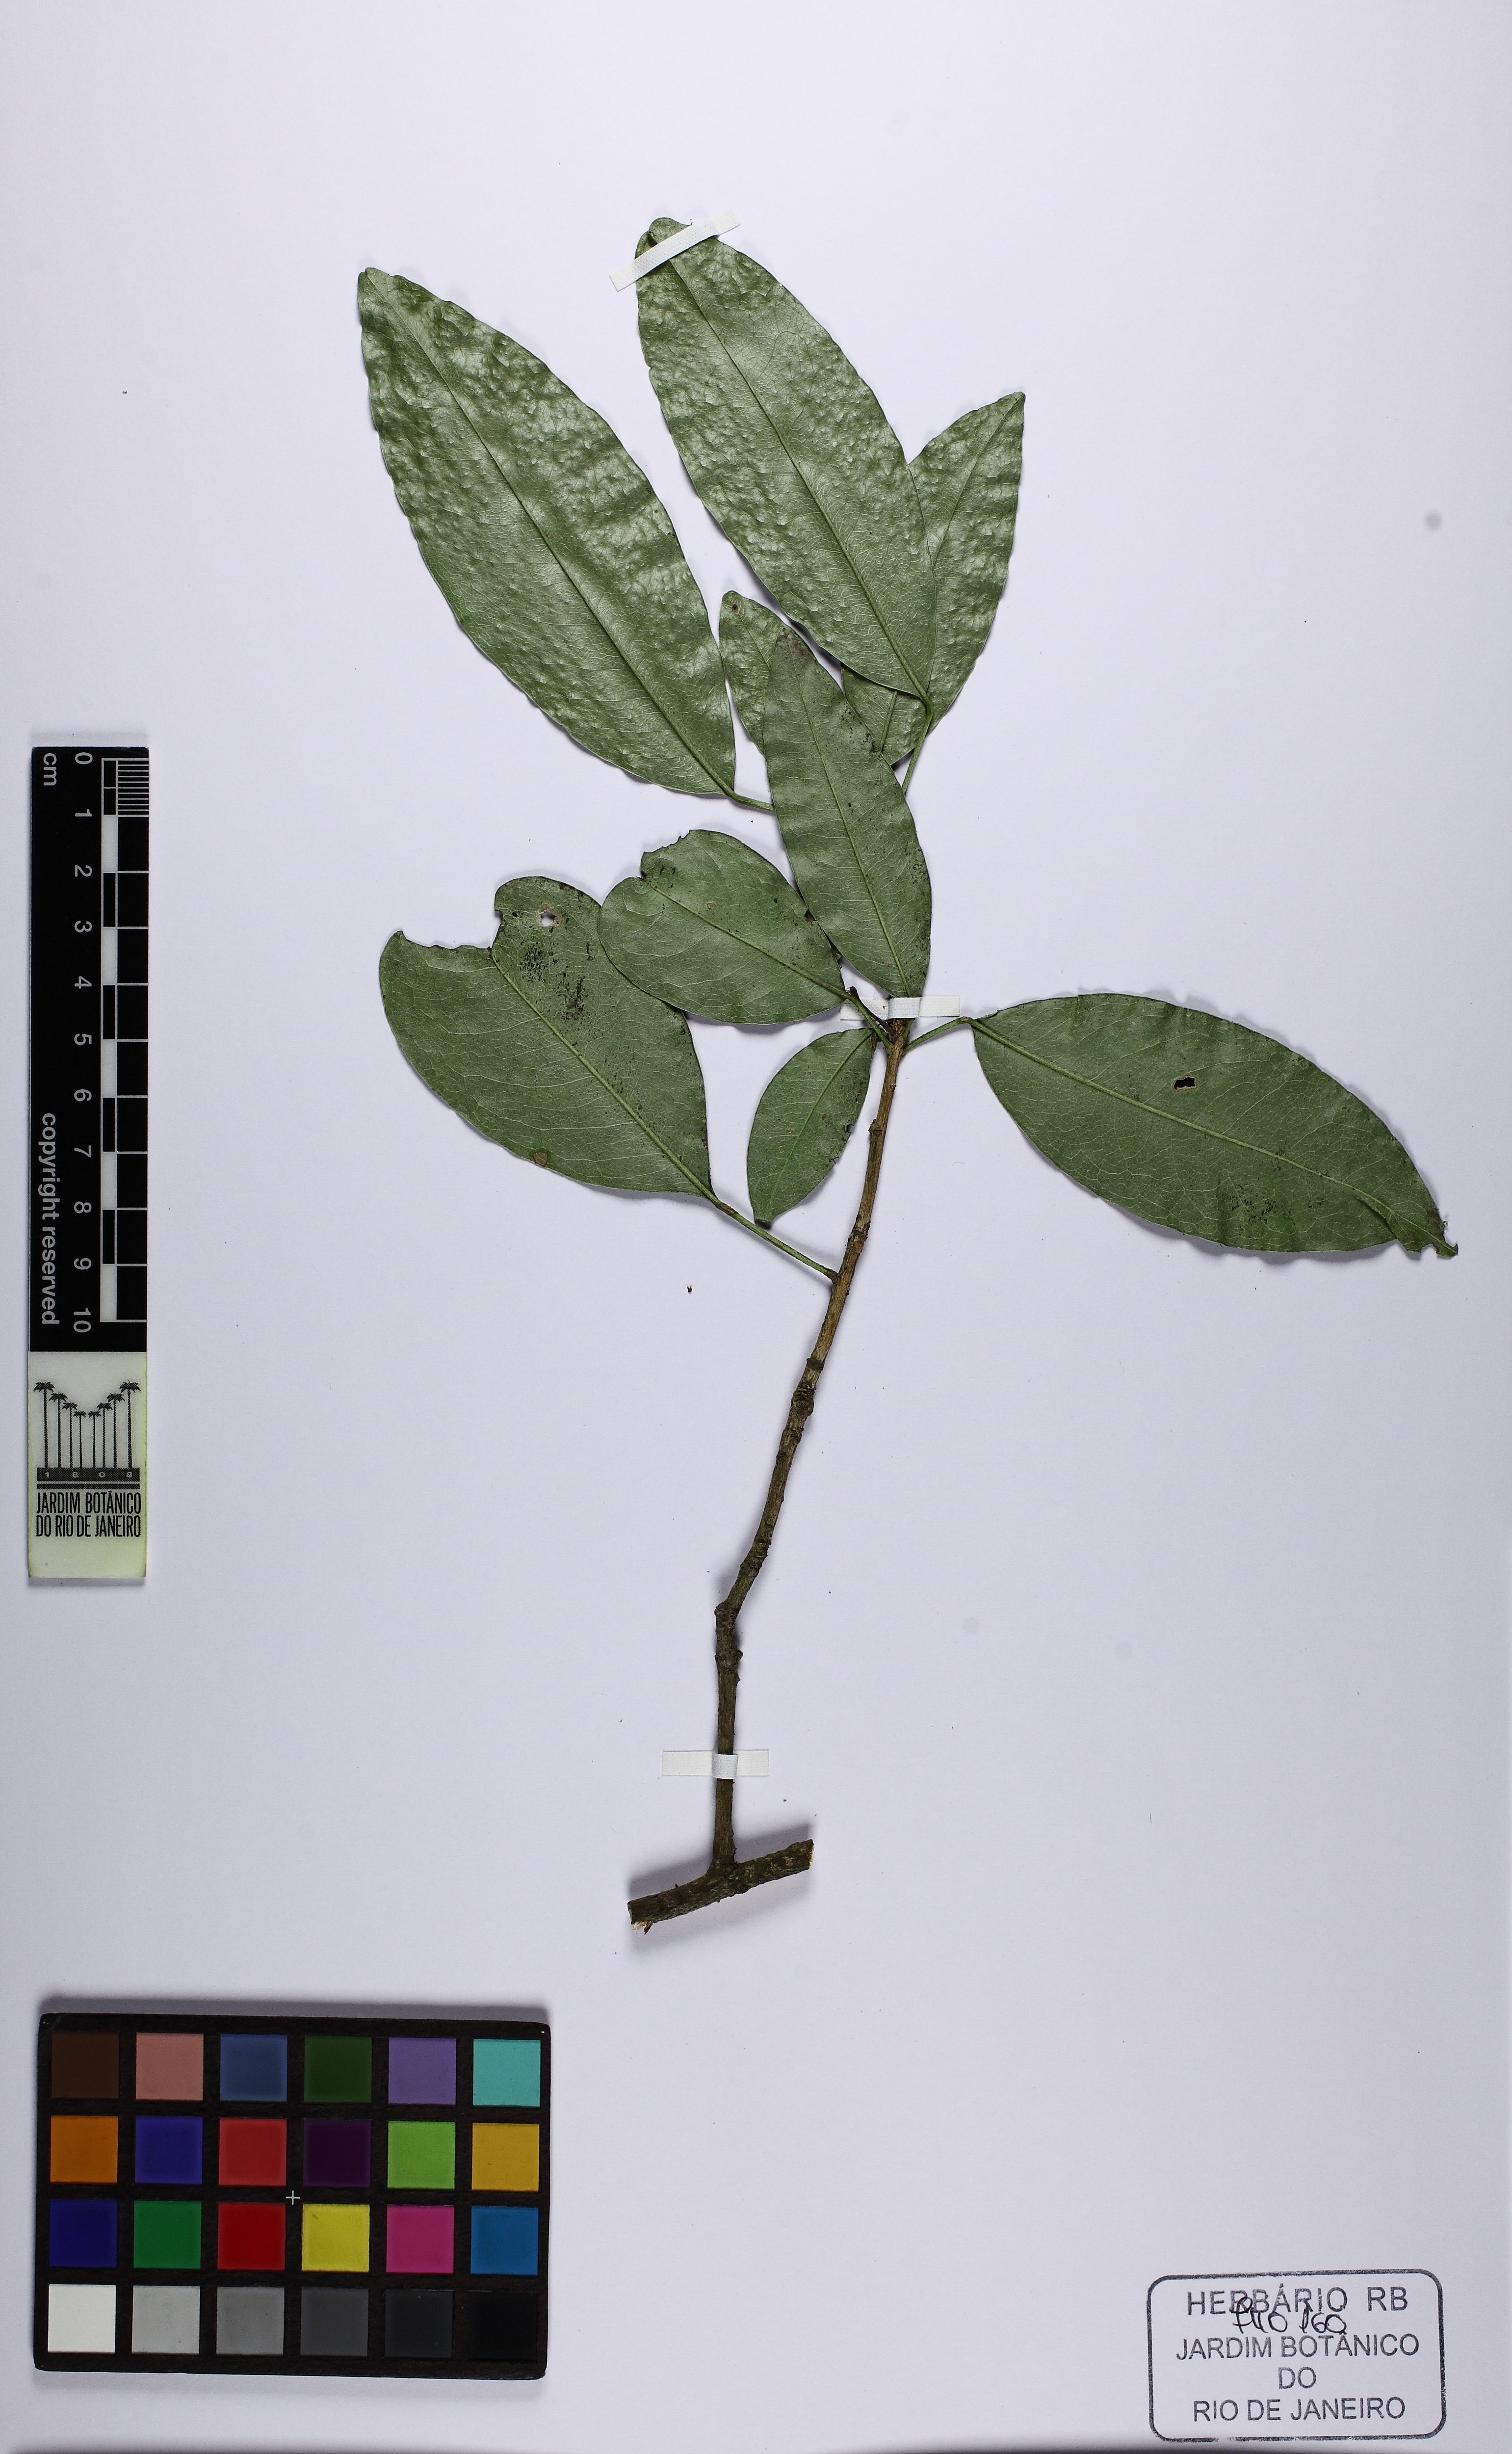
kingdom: Plantae
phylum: Tracheophyta
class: Magnoliopsida
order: Sapindales
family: Rutaceae
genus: Conchocarpus
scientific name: Conchocarpus ruber
